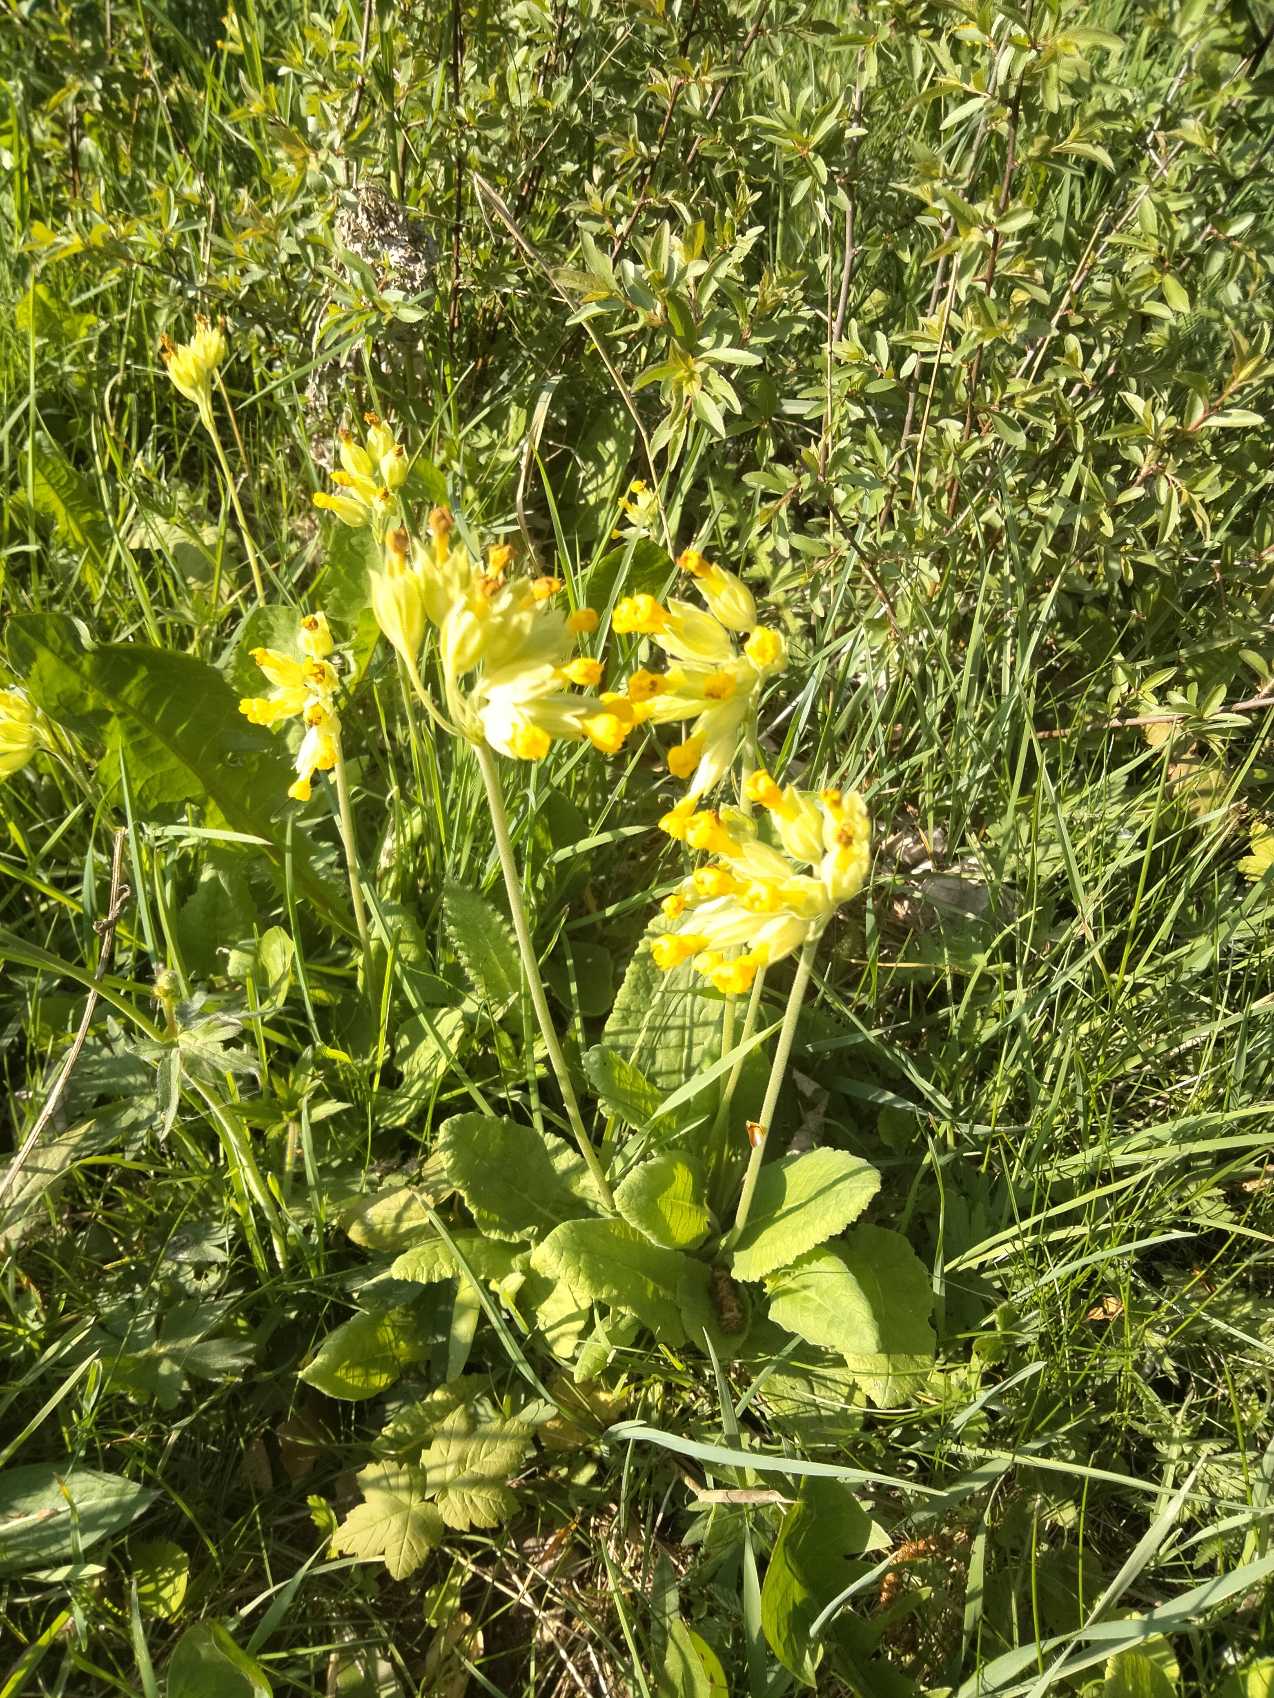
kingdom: Plantae
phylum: Tracheophyta
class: Magnoliopsida
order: Ericales
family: Primulaceae
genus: Primula
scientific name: Primula veris
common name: Hulkravet kodriver
